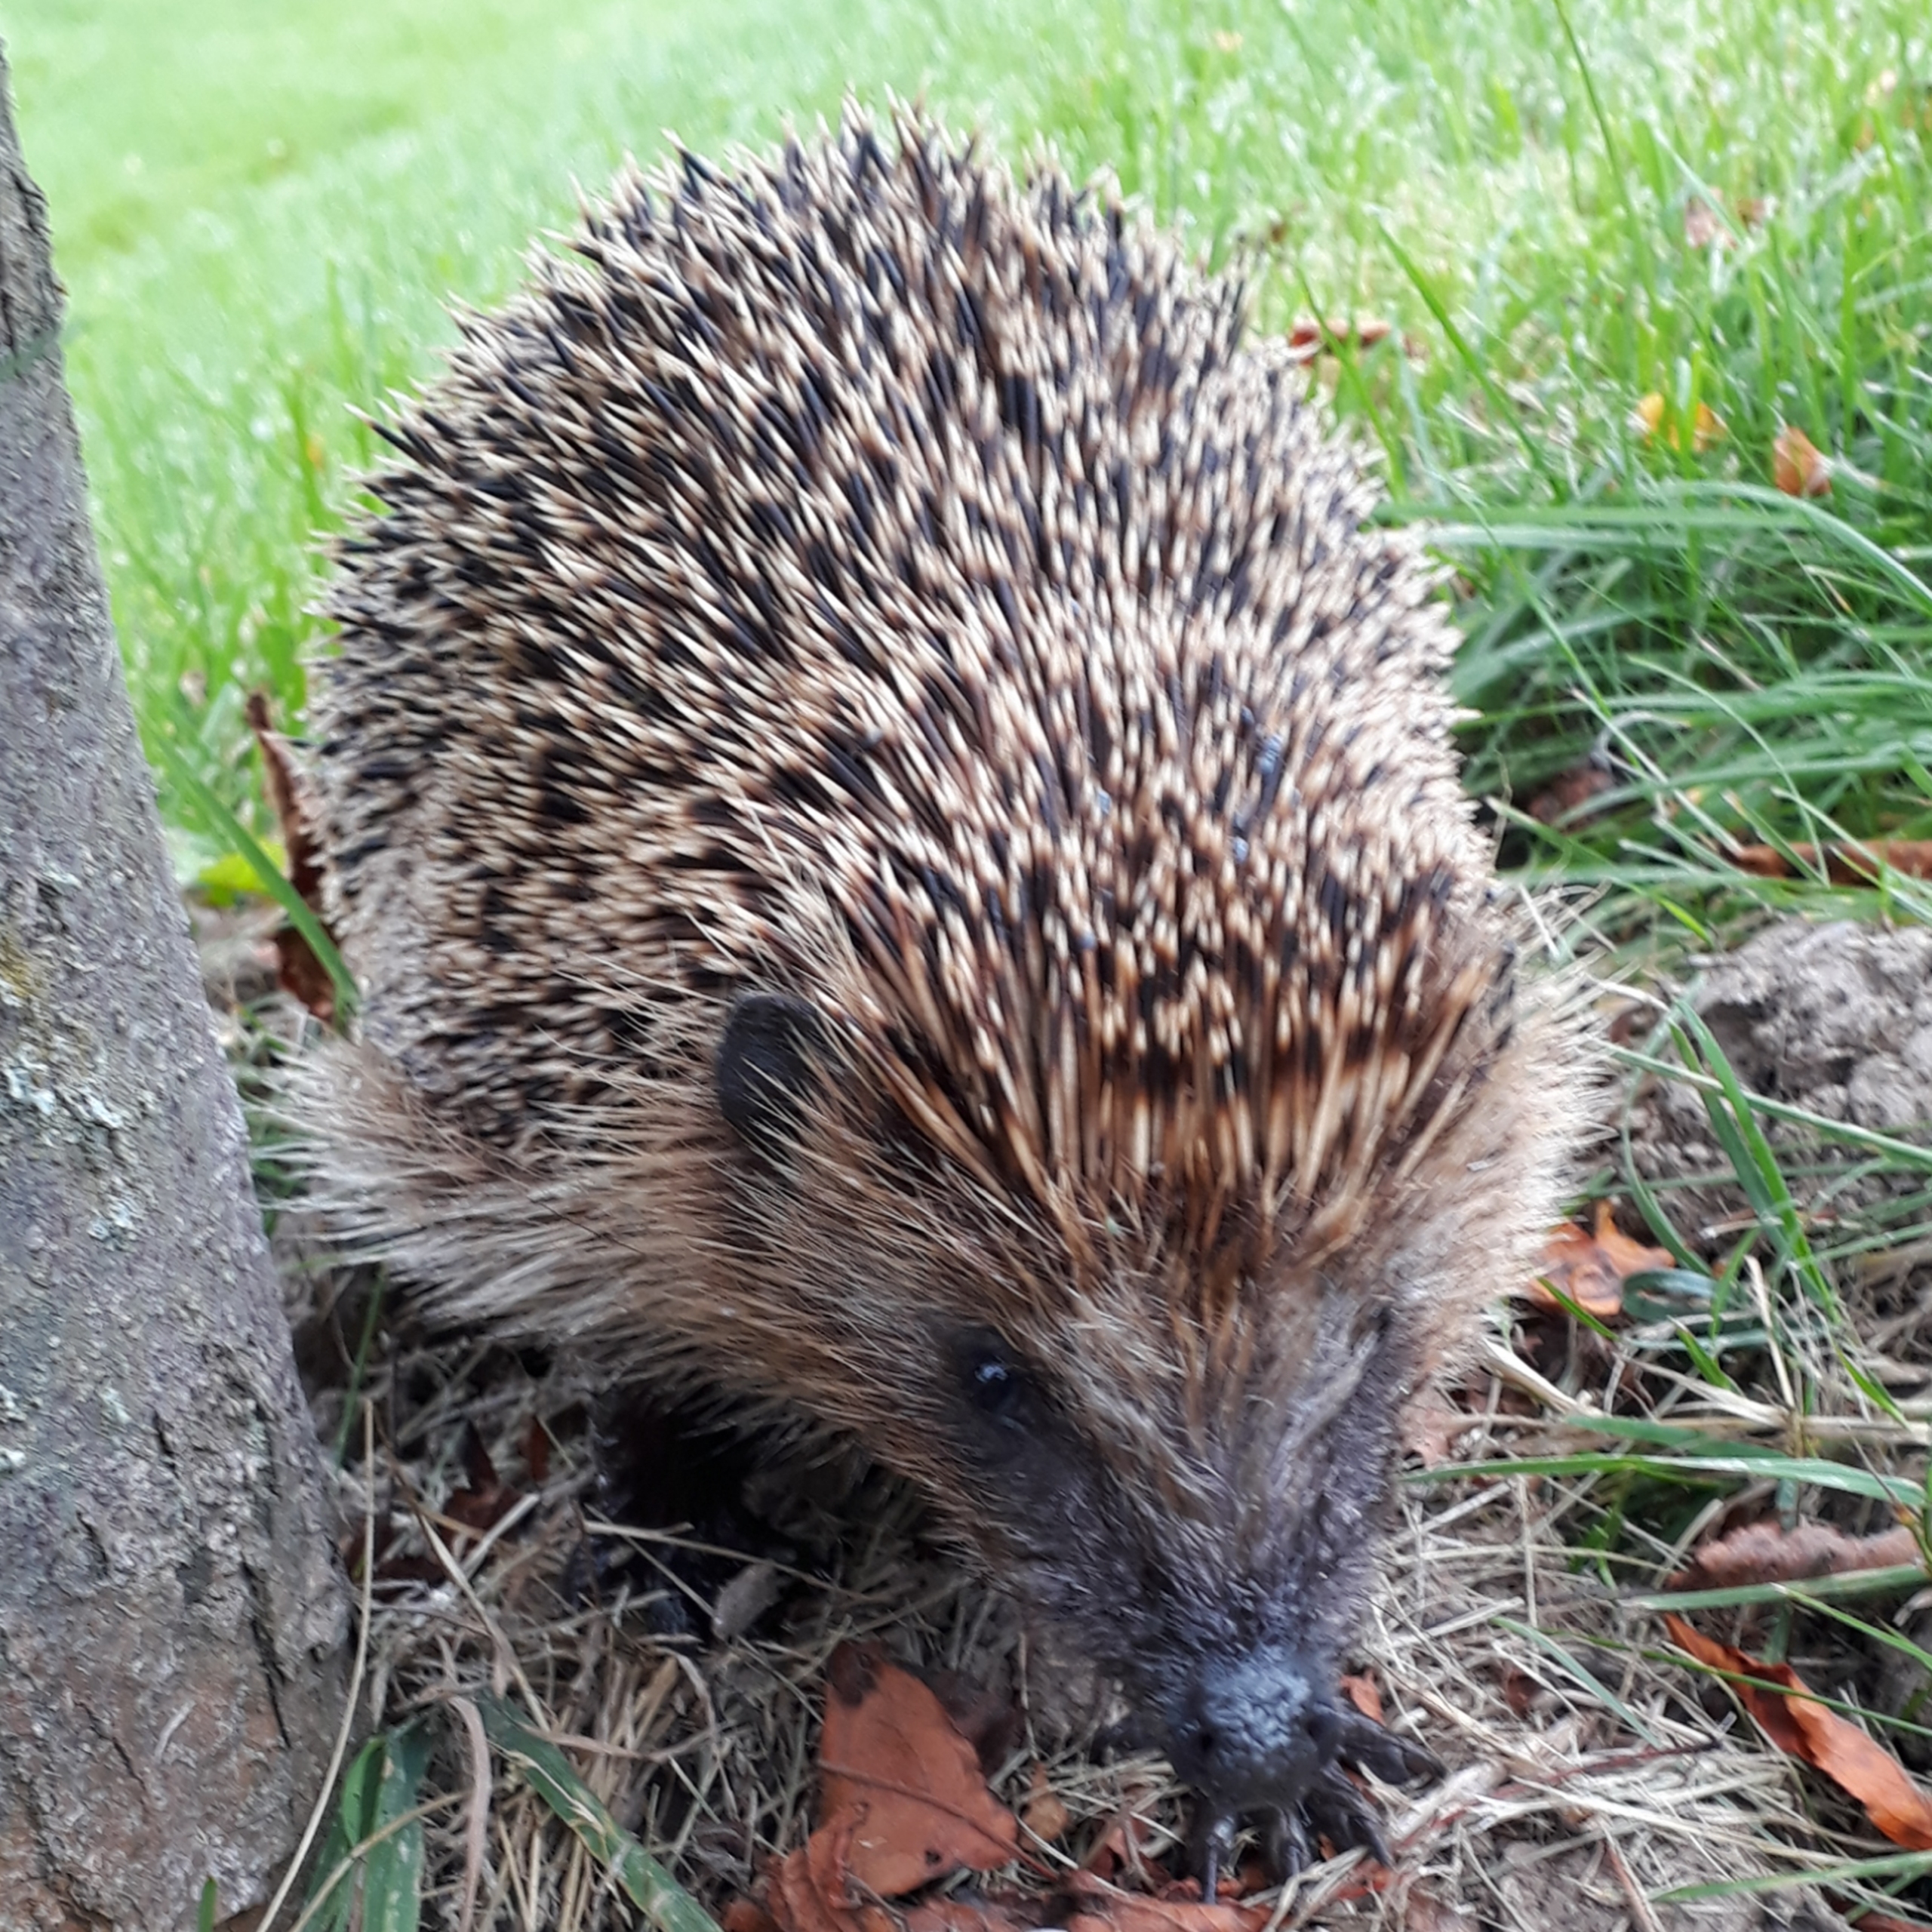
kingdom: Animalia
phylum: Chordata
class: Mammalia
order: Erinaceomorpha
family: Erinaceidae
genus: Erinaceus
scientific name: Erinaceus europaeus
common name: Pindsvin
